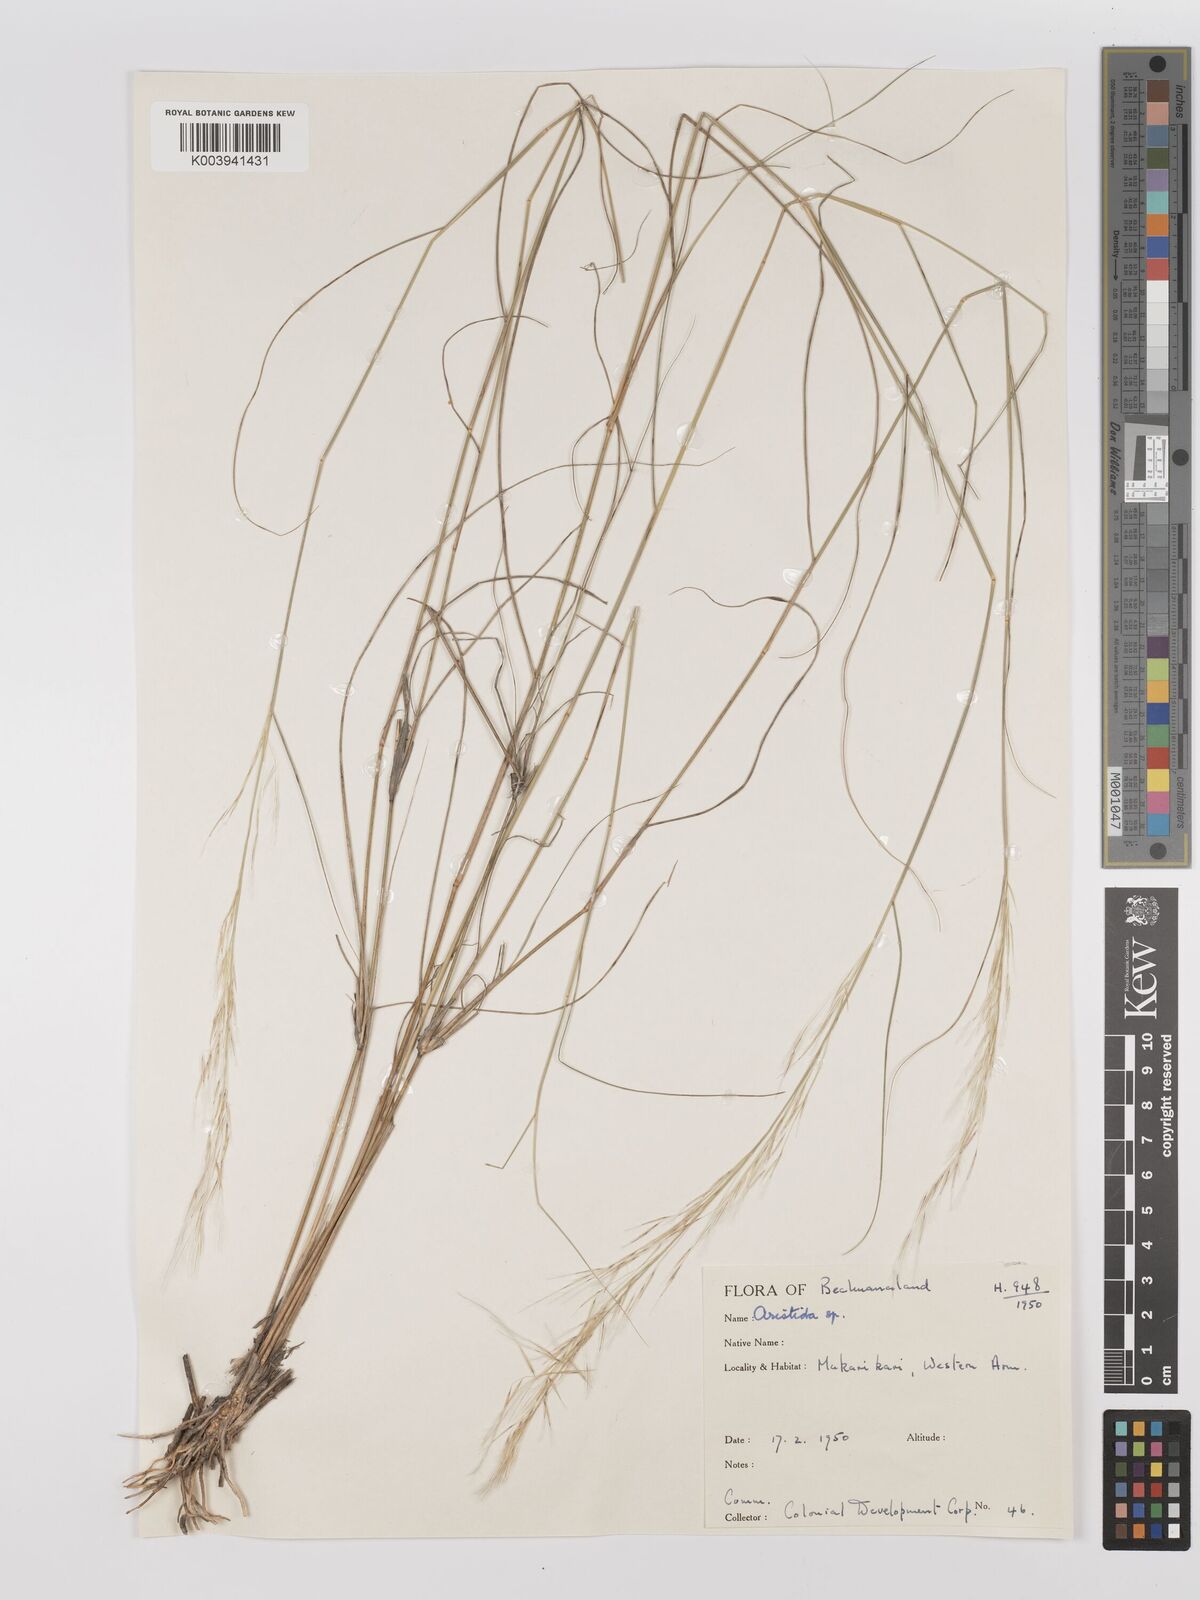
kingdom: Plantae
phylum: Tracheophyta
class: Liliopsida
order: Poales
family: Poaceae
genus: Stipagrostis
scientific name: Stipagrostis uniplumis
